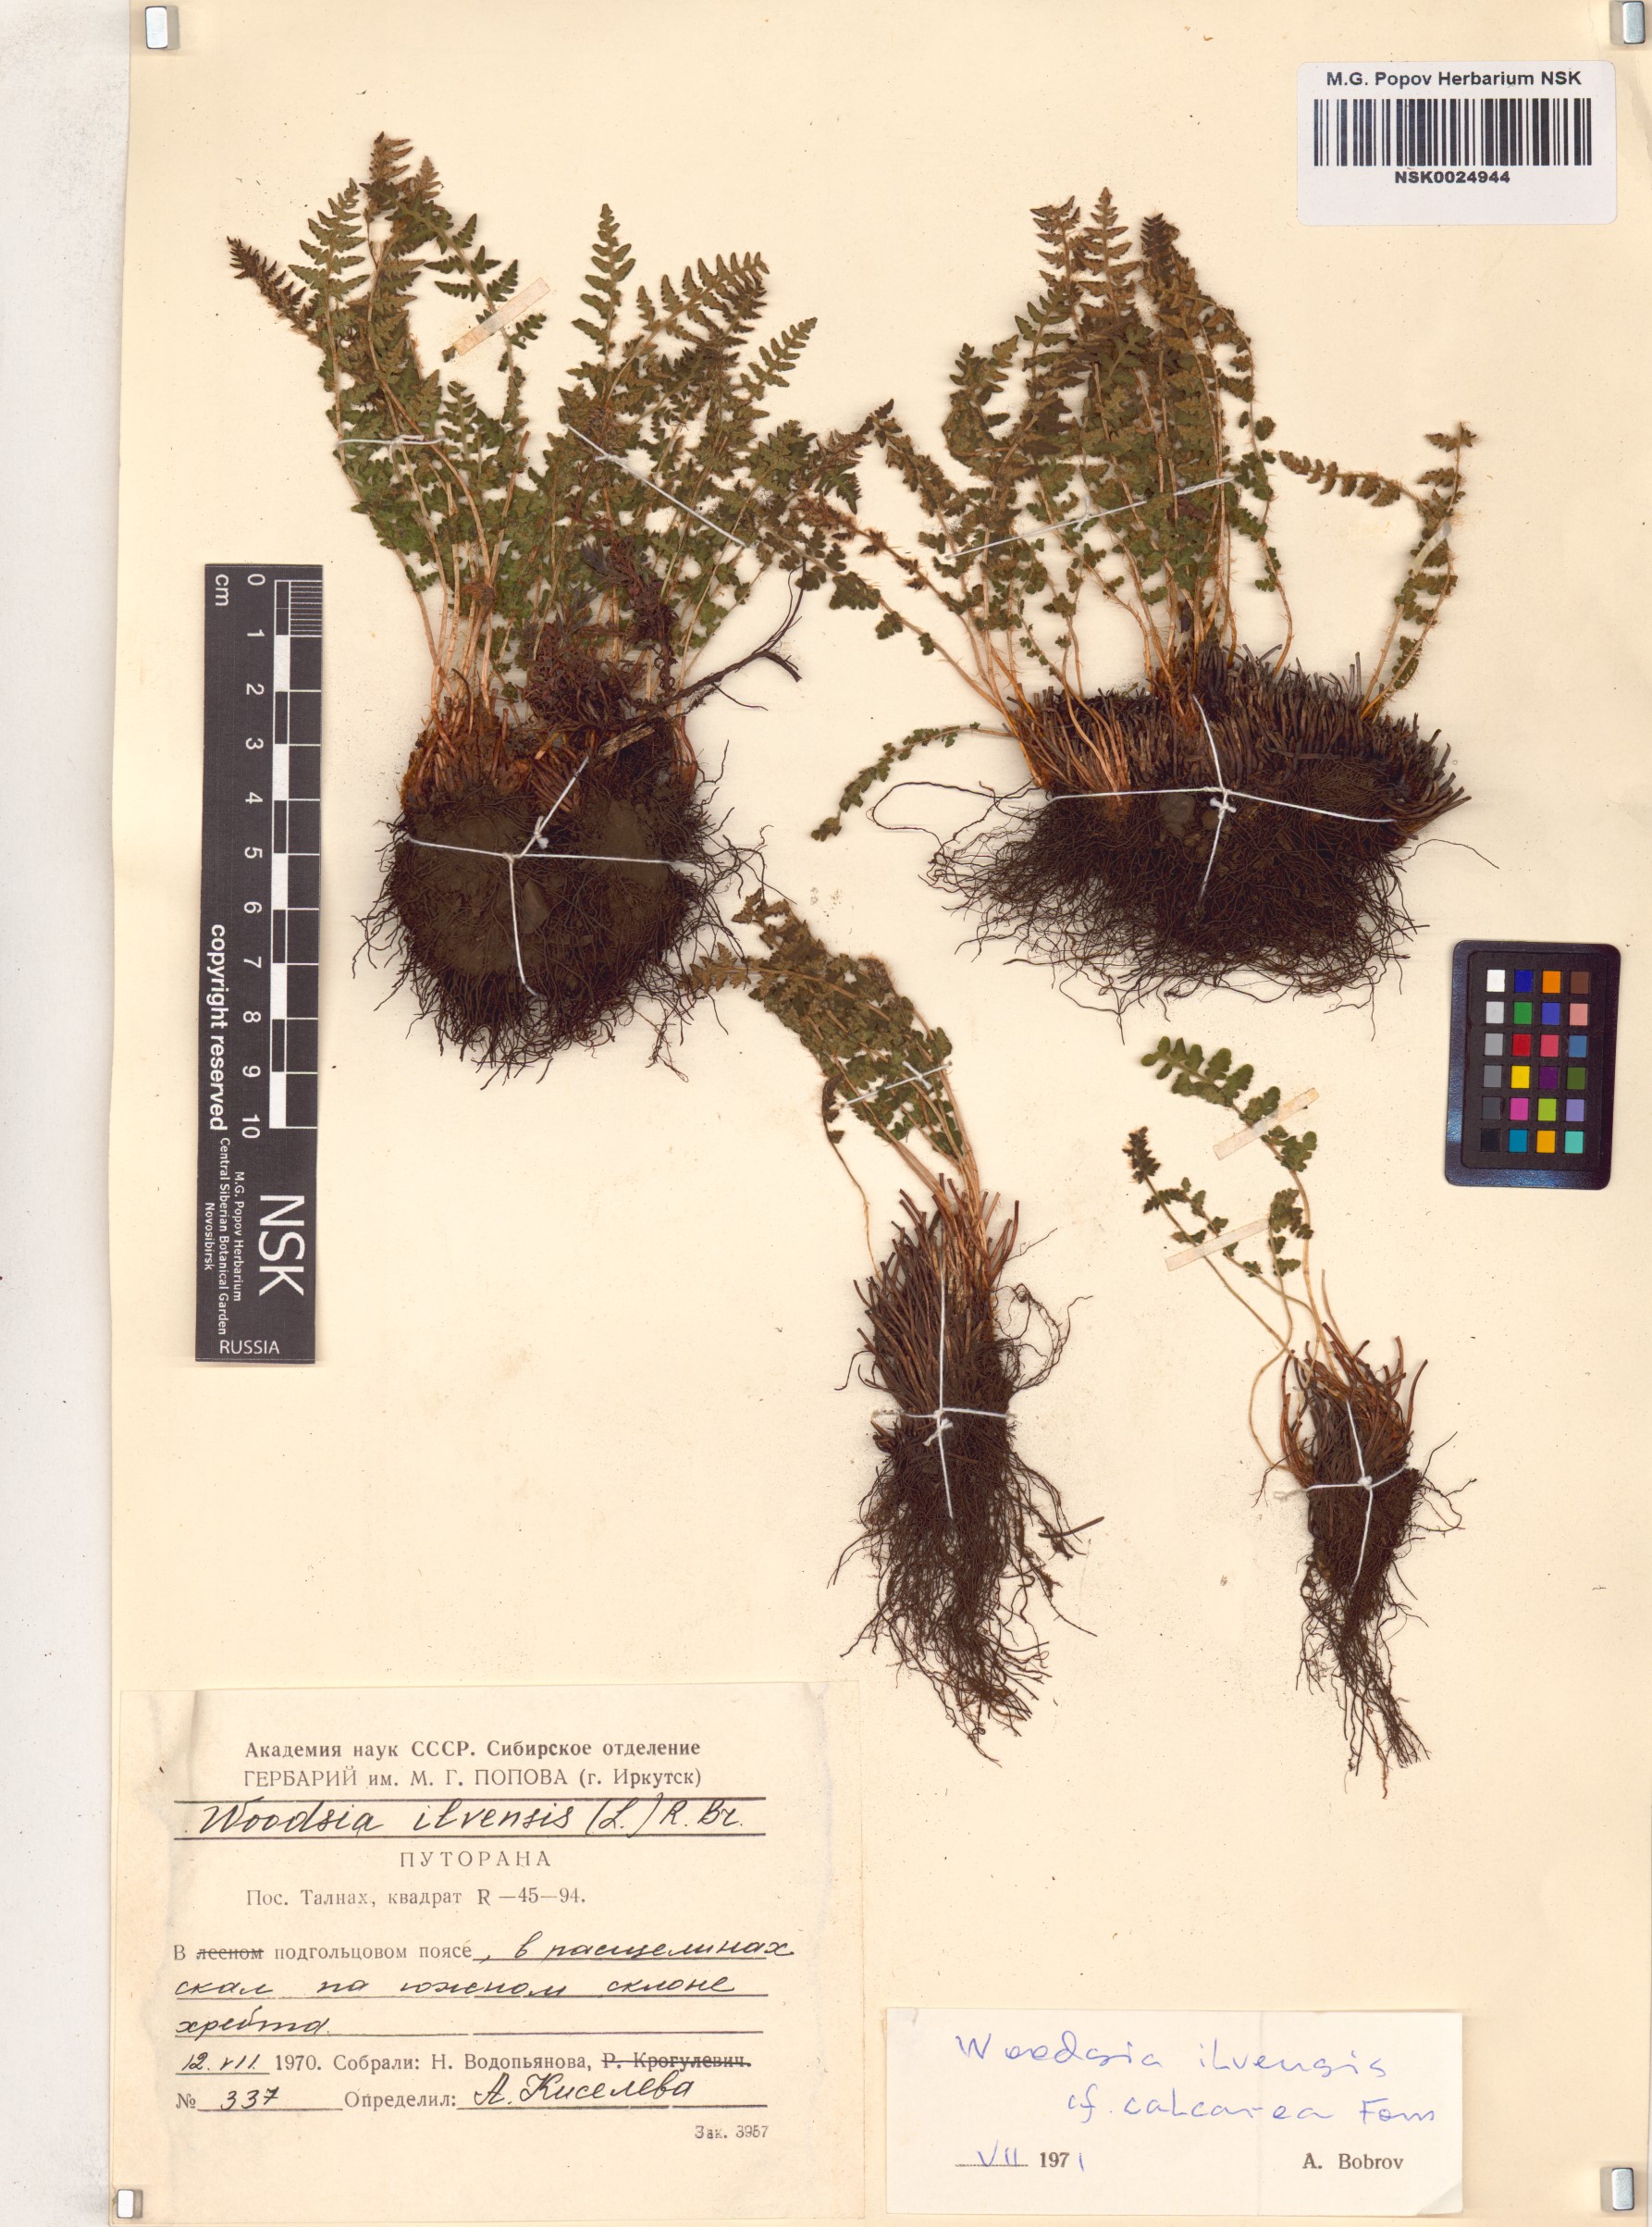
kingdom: Plantae
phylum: Tracheophyta
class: Polypodiopsida
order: Polypodiales
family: Woodsiaceae
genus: Woodsia
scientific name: Woodsia ilvensis
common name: Fragrant woodsia
